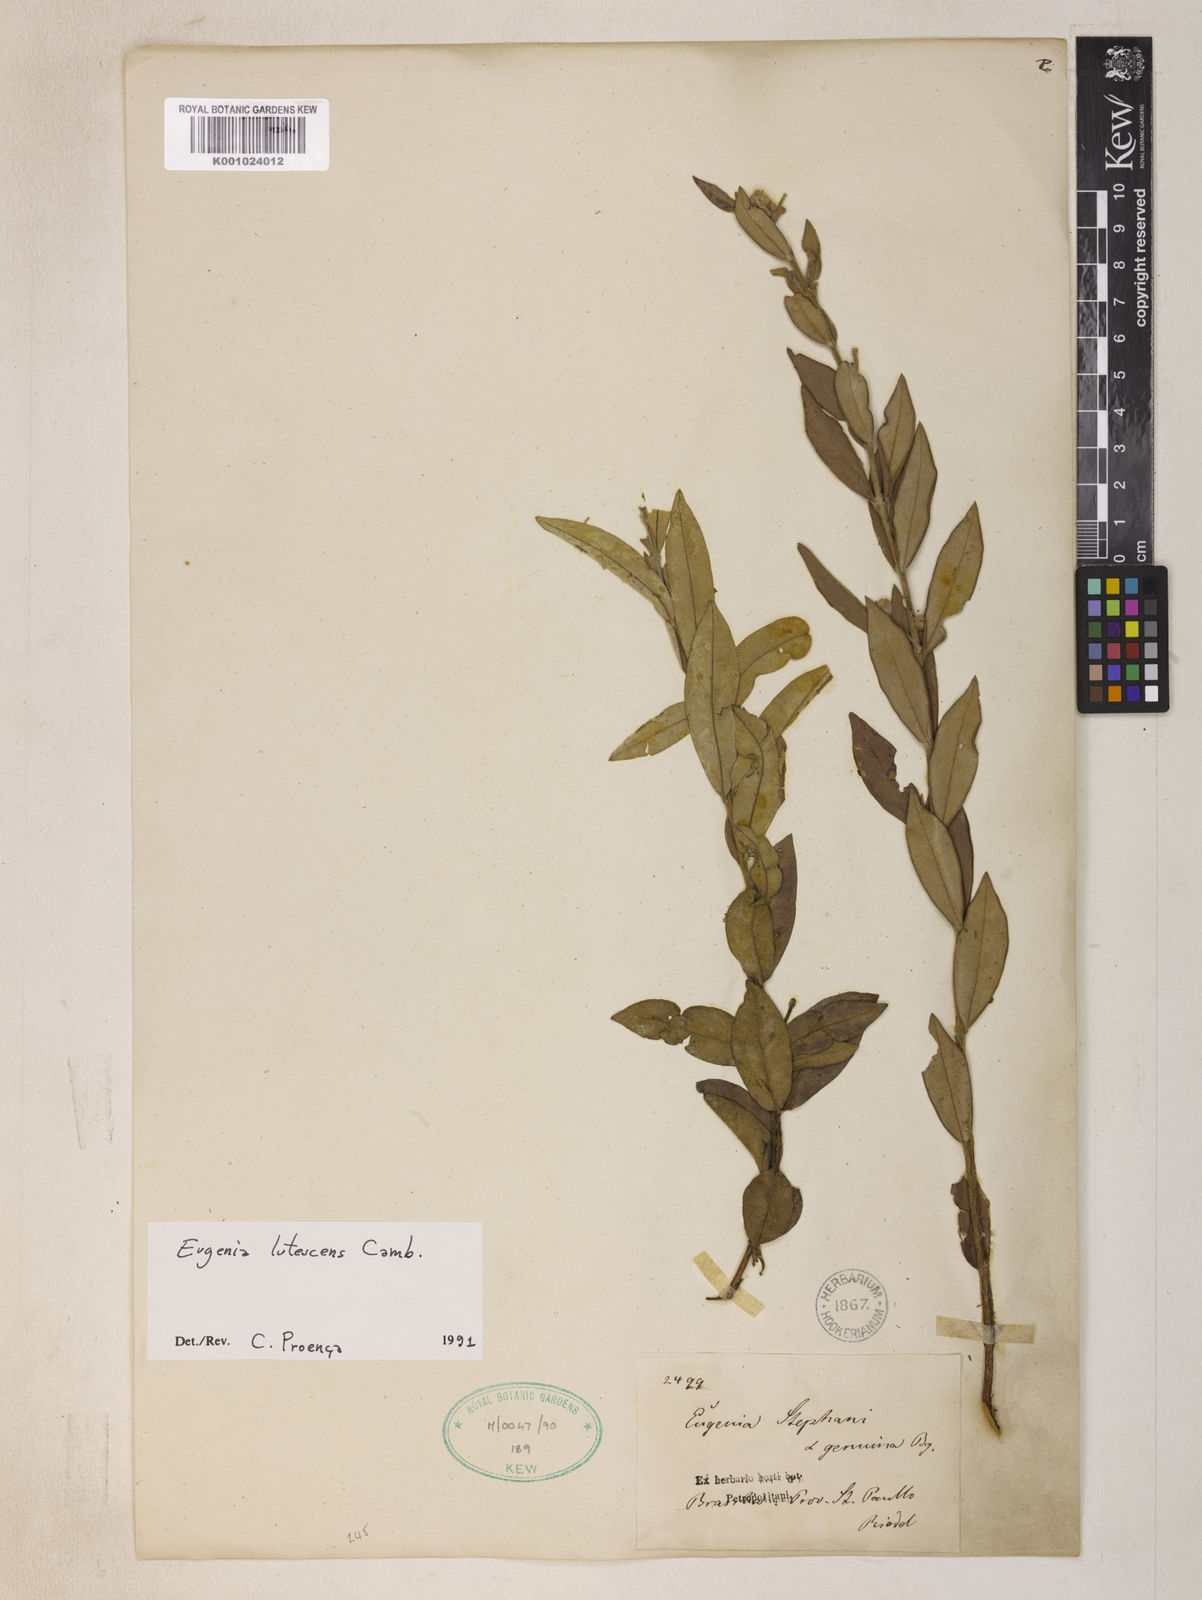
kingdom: Plantae
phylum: Tracheophyta
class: Magnoliopsida
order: Myrtales
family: Myrtaceae
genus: Eugenia
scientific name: Eugenia lutescens
